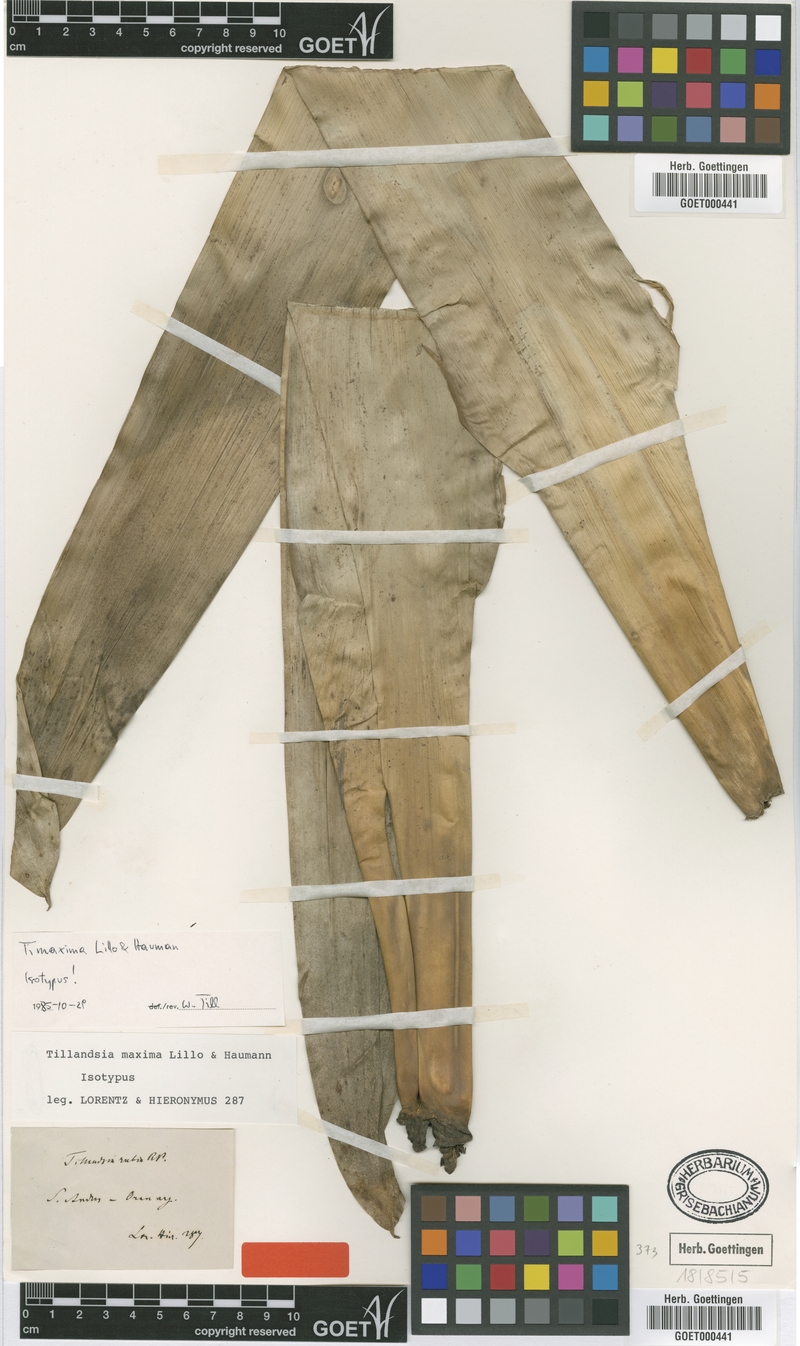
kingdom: Plantae
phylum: Tracheophyta
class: Liliopsida
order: Poales
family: Bromeliaceae
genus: Tillandsia
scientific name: Tillandsia australis
